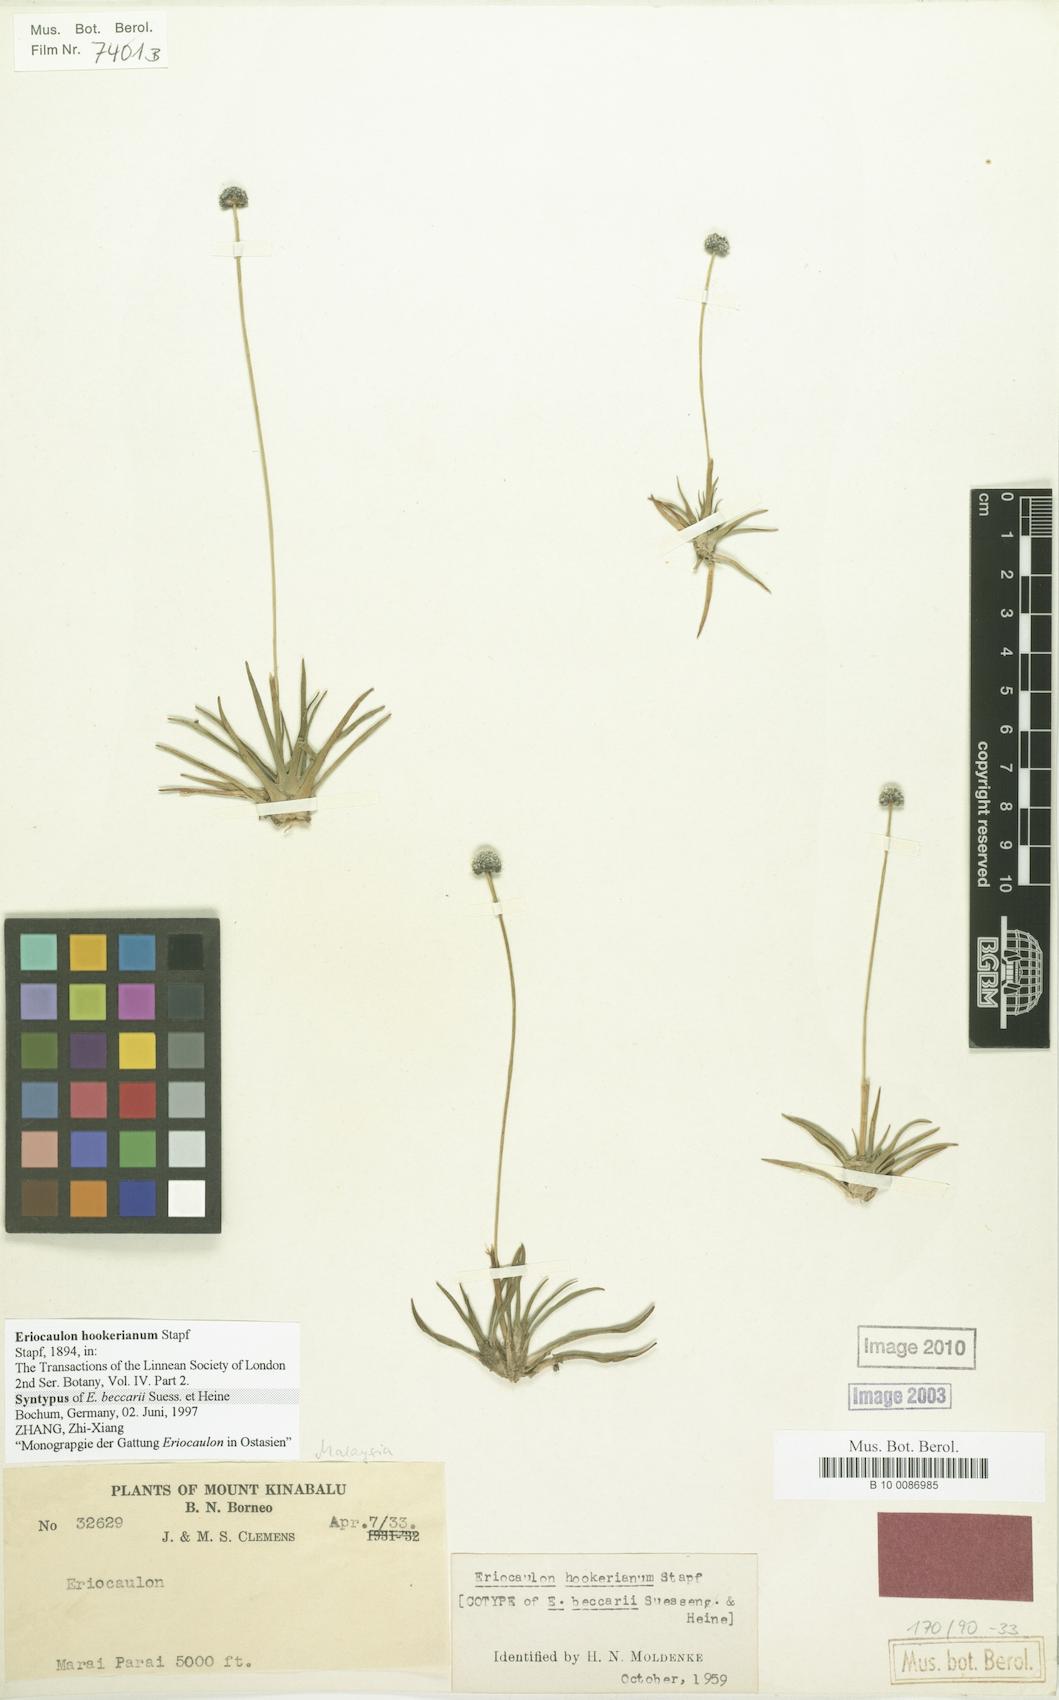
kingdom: Plantae
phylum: Tracheophyta
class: Liliopsida
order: Poales
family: Eriocaulaceae
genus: Eriocaulon
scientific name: Eriocaulon hookerianum
